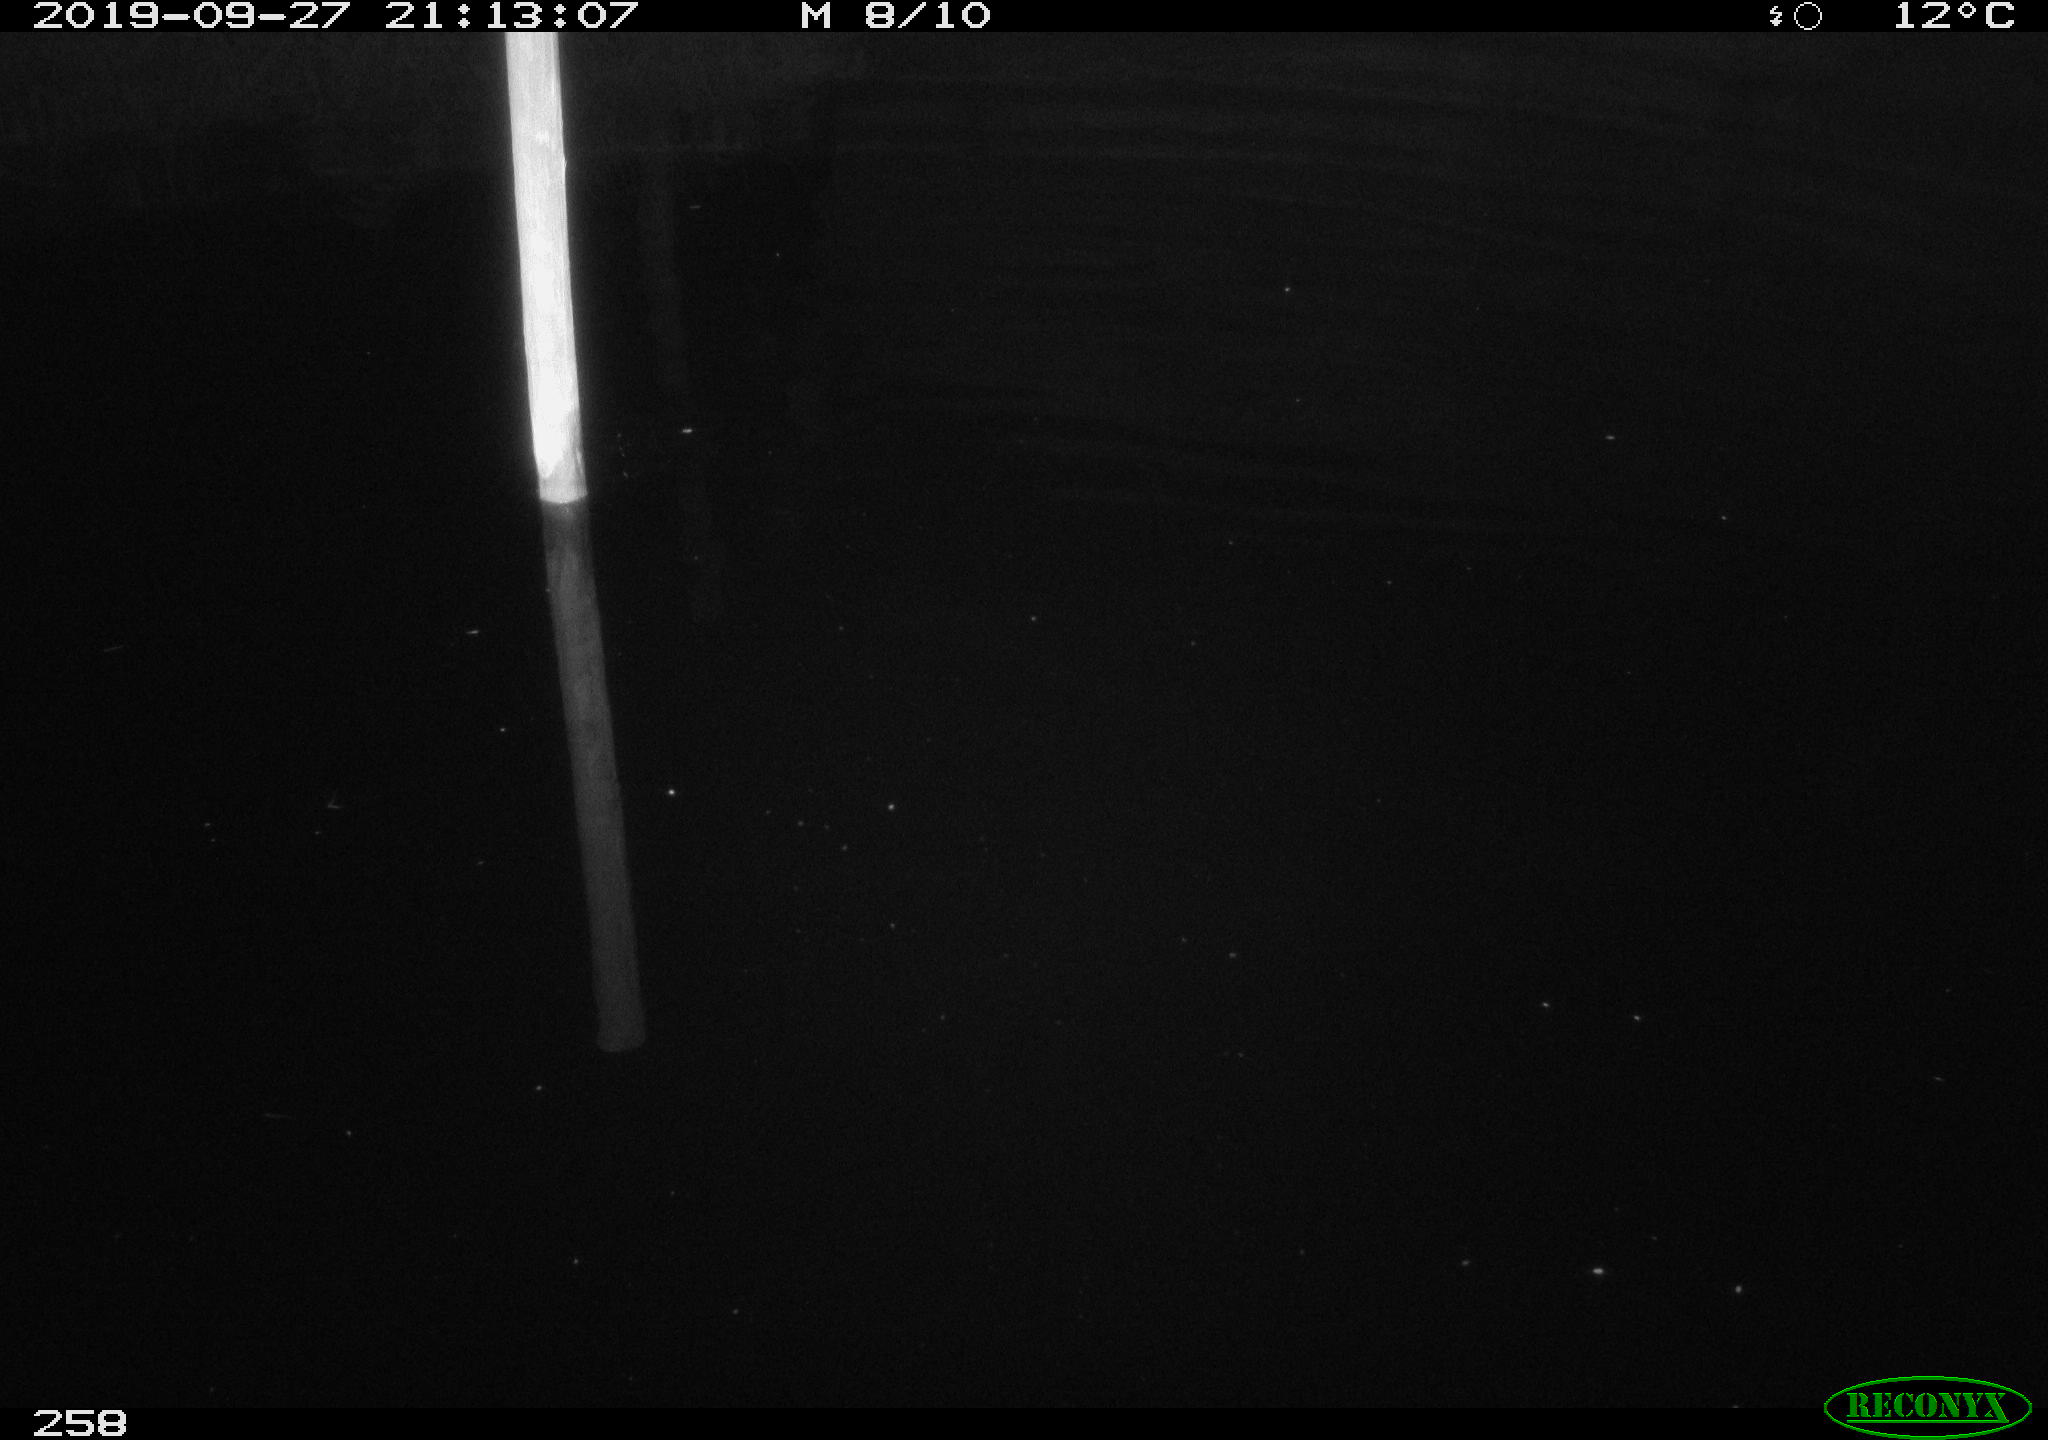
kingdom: Animalia
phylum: Chordata
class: Aves
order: Anseriformes
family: Anatidae
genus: Anas
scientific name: Anas platyrhynchos
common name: Mallard
